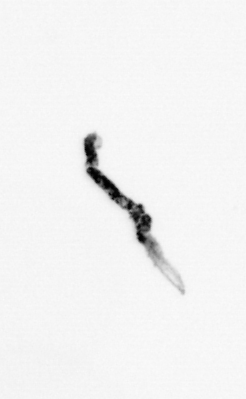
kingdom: Bacteria
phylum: Cyanobacteria
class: Cyanobacteriia
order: Cyanobacteriales
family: Microcoleaceae
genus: Trichodesmium
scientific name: Trichodesmium
